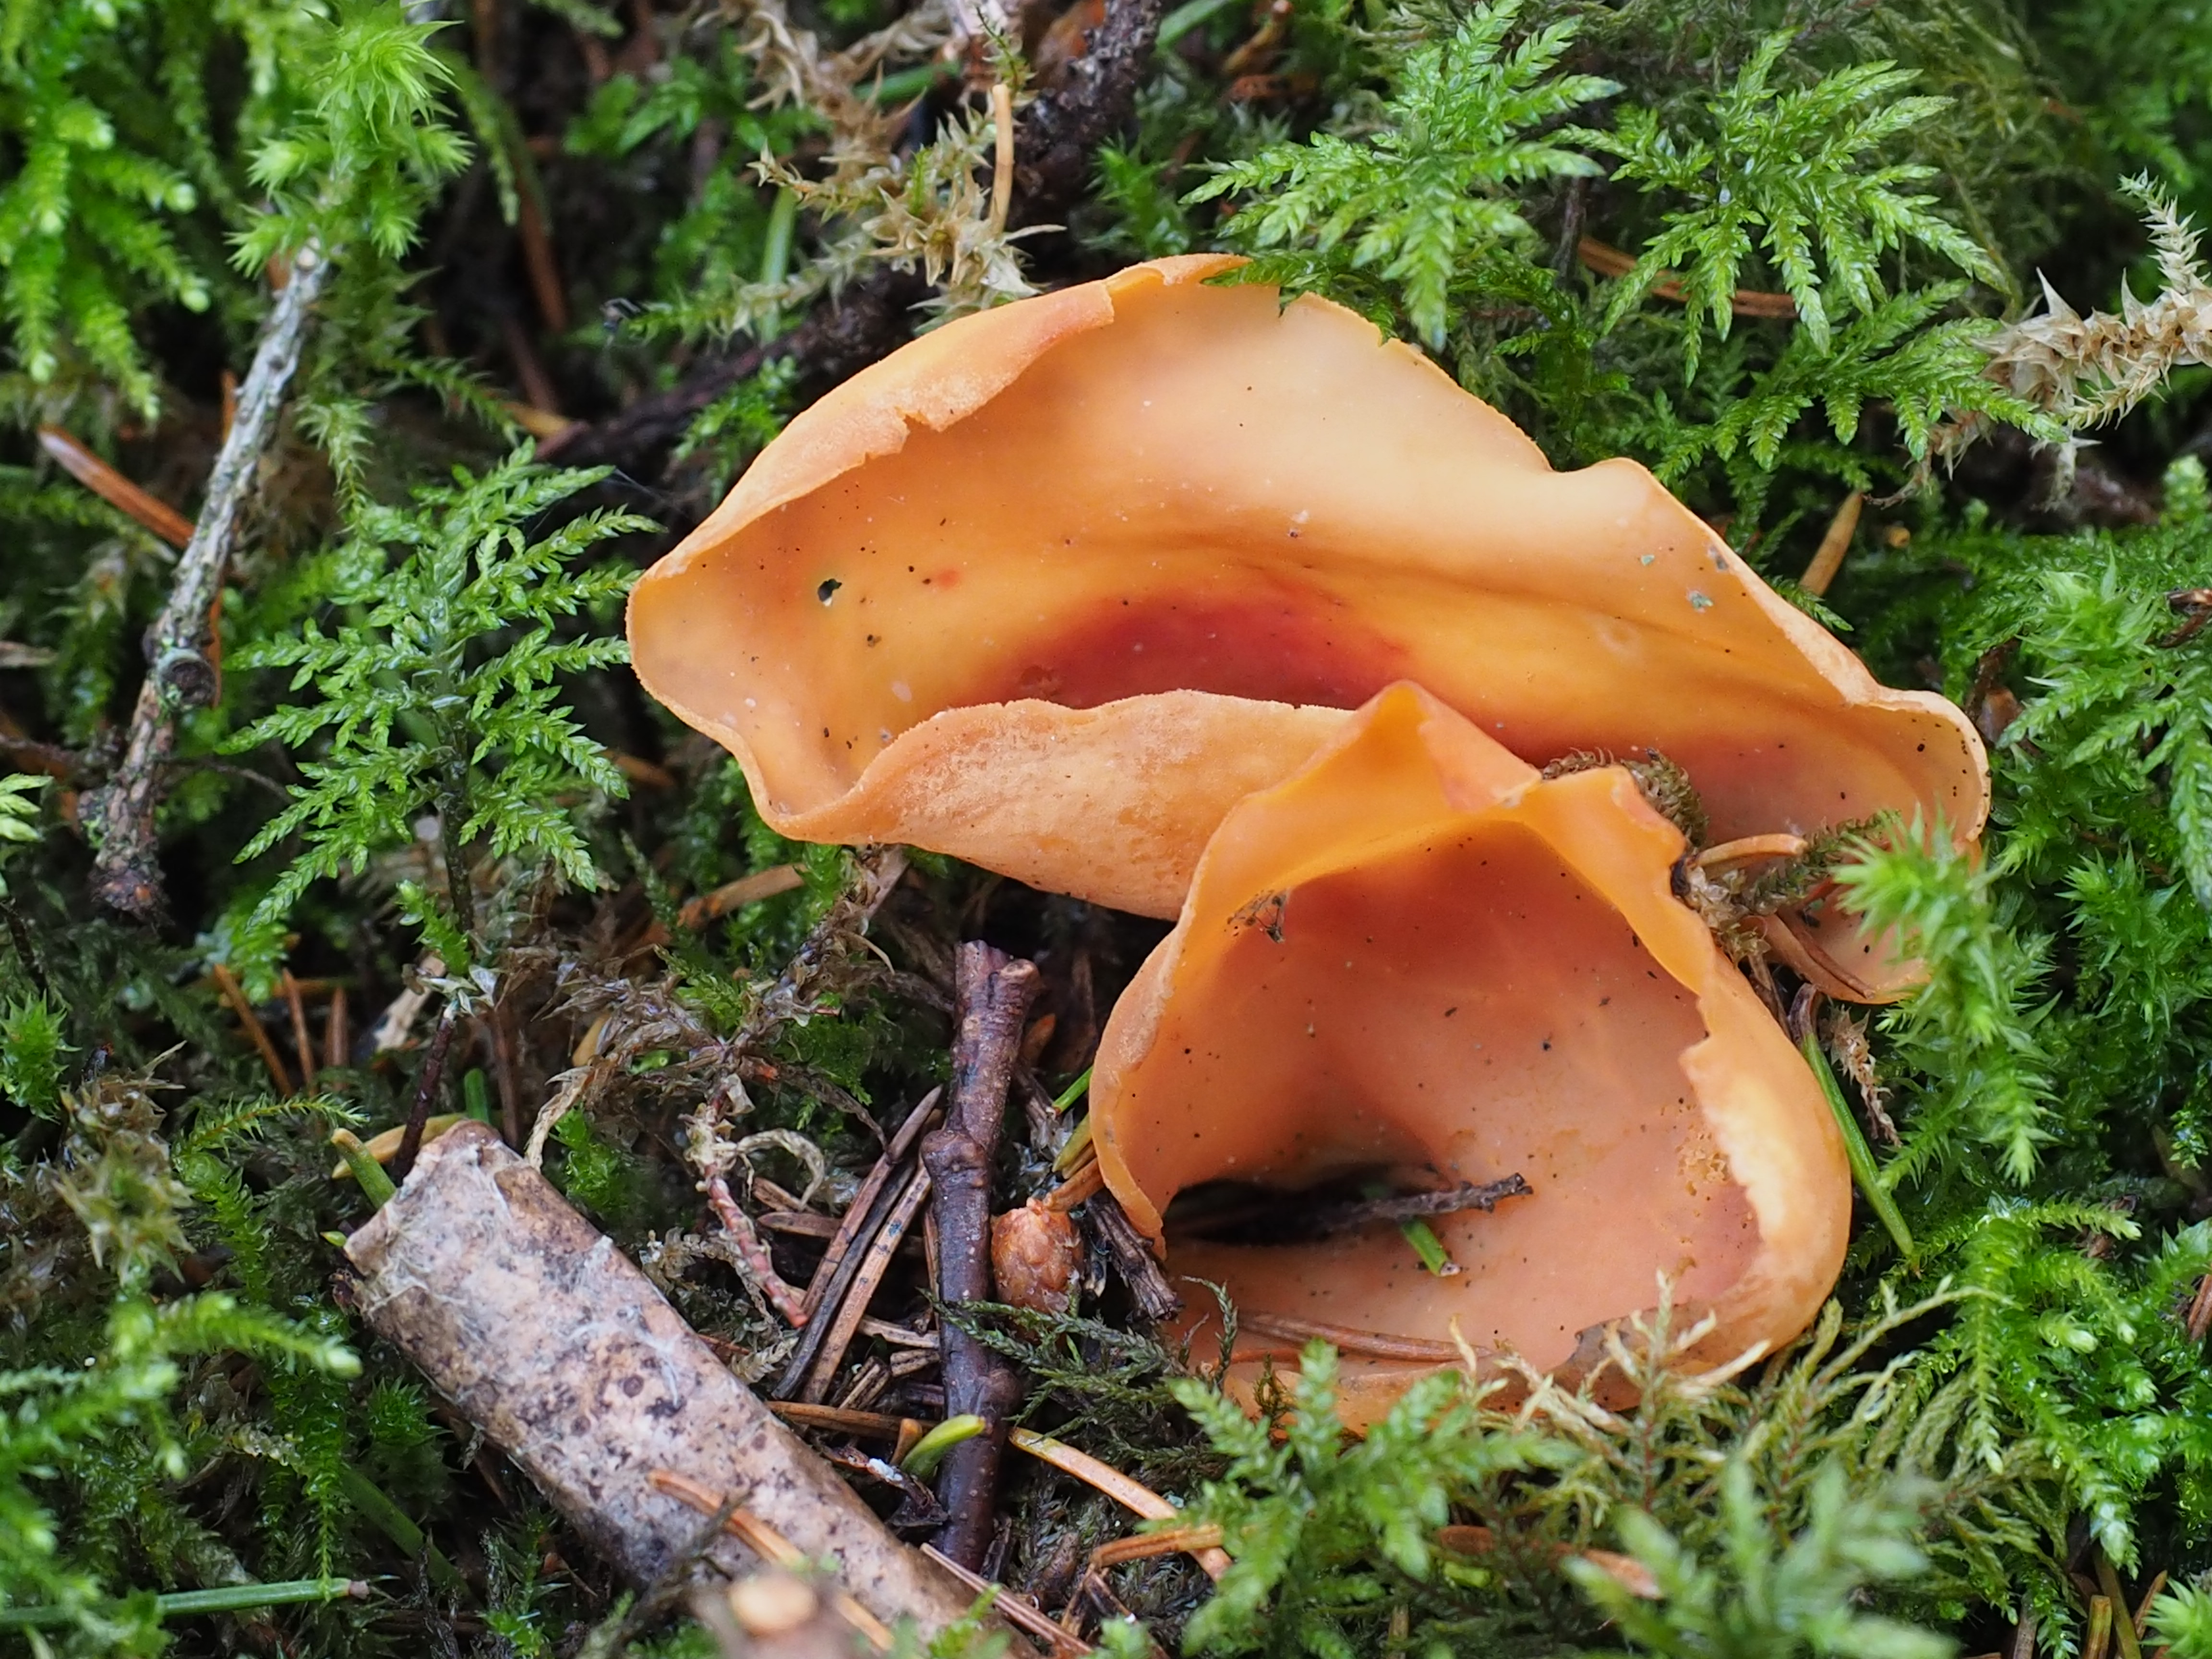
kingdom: Fungi
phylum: Ascomycota
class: Pezizomycetes
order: Pezizales
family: Otideaceae
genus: Otidea
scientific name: Otidea
